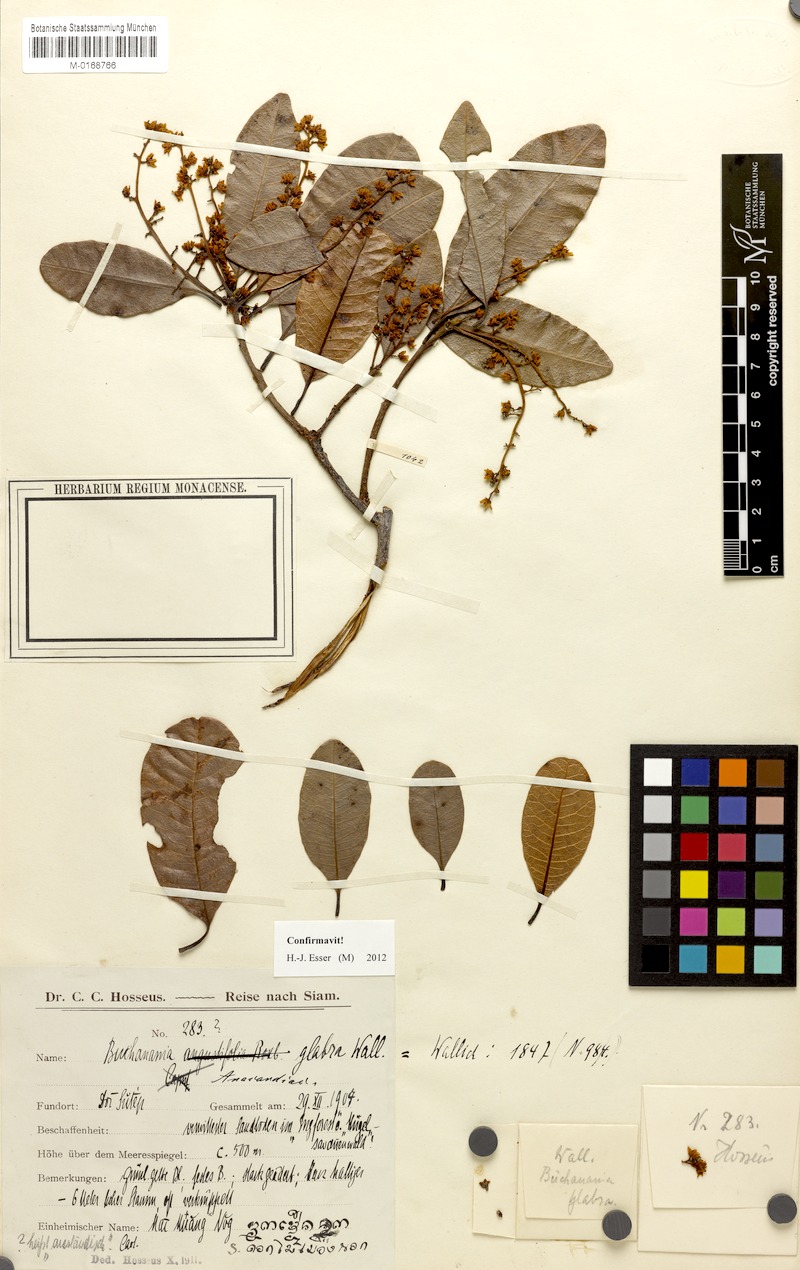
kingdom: Plantae
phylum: Tracheophyta
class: Magnoliopsida
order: Sapindales
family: Anacardiaceae
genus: Buchanania
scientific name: Buchanania glabra
